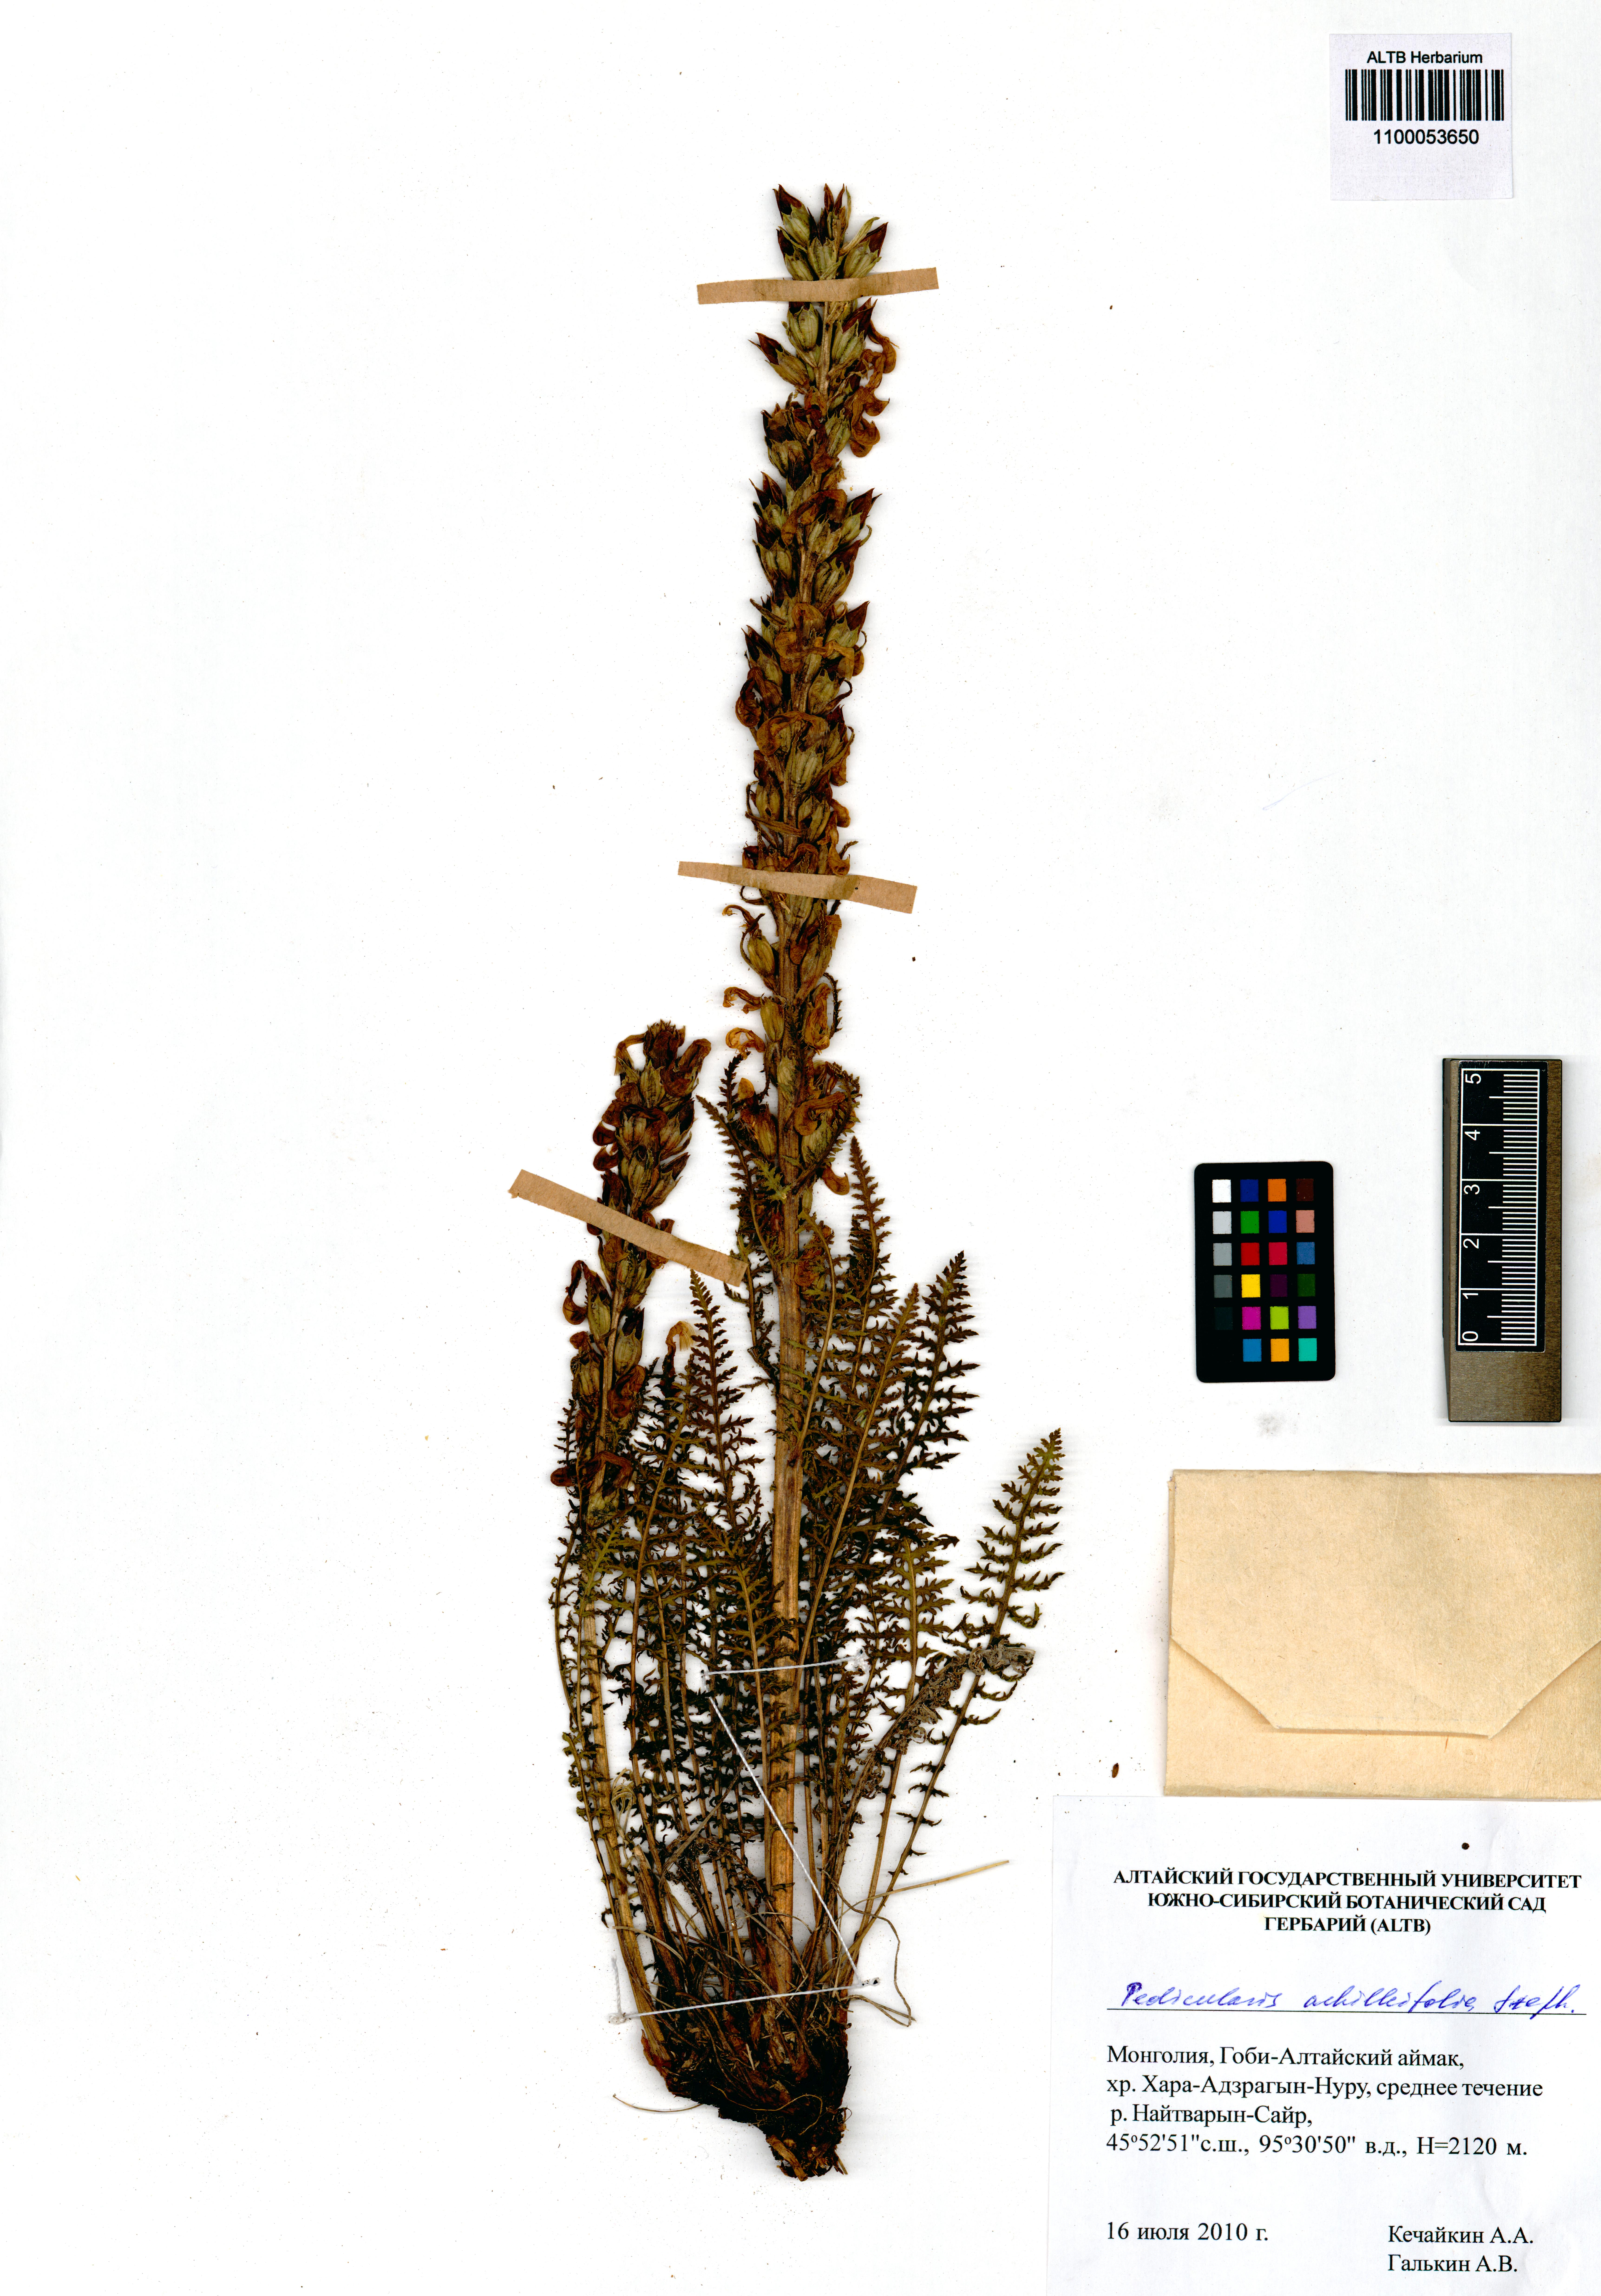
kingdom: Plantae
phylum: Tracheophyta
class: Magnoliopsida
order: Lamiales
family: Orobanchaceae
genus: Pedicularis
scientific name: Pedicularis achilleifolia
